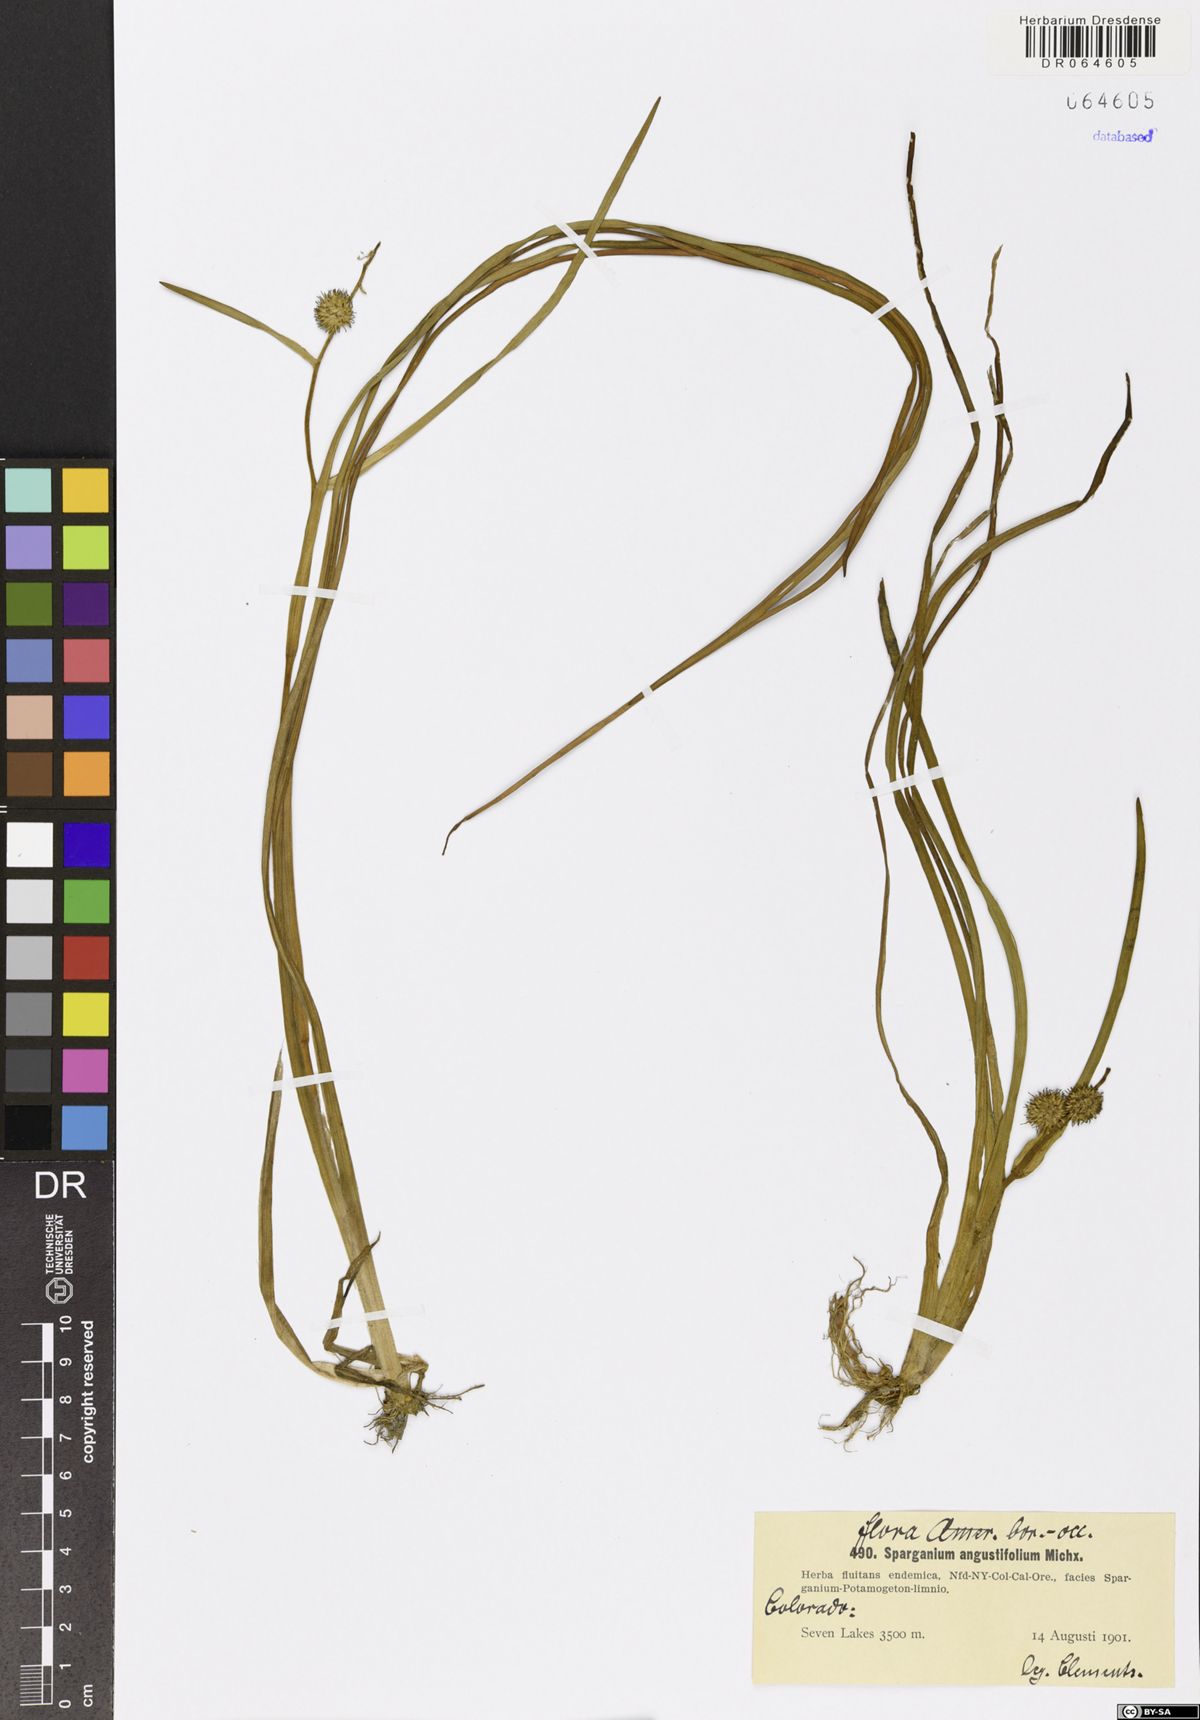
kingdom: Plantae
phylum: Tracheophyta
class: Liliopsida
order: Poales
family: Typhaceae
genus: Sparganium
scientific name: Sparganium angustifolium
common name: Floating bur-reed
